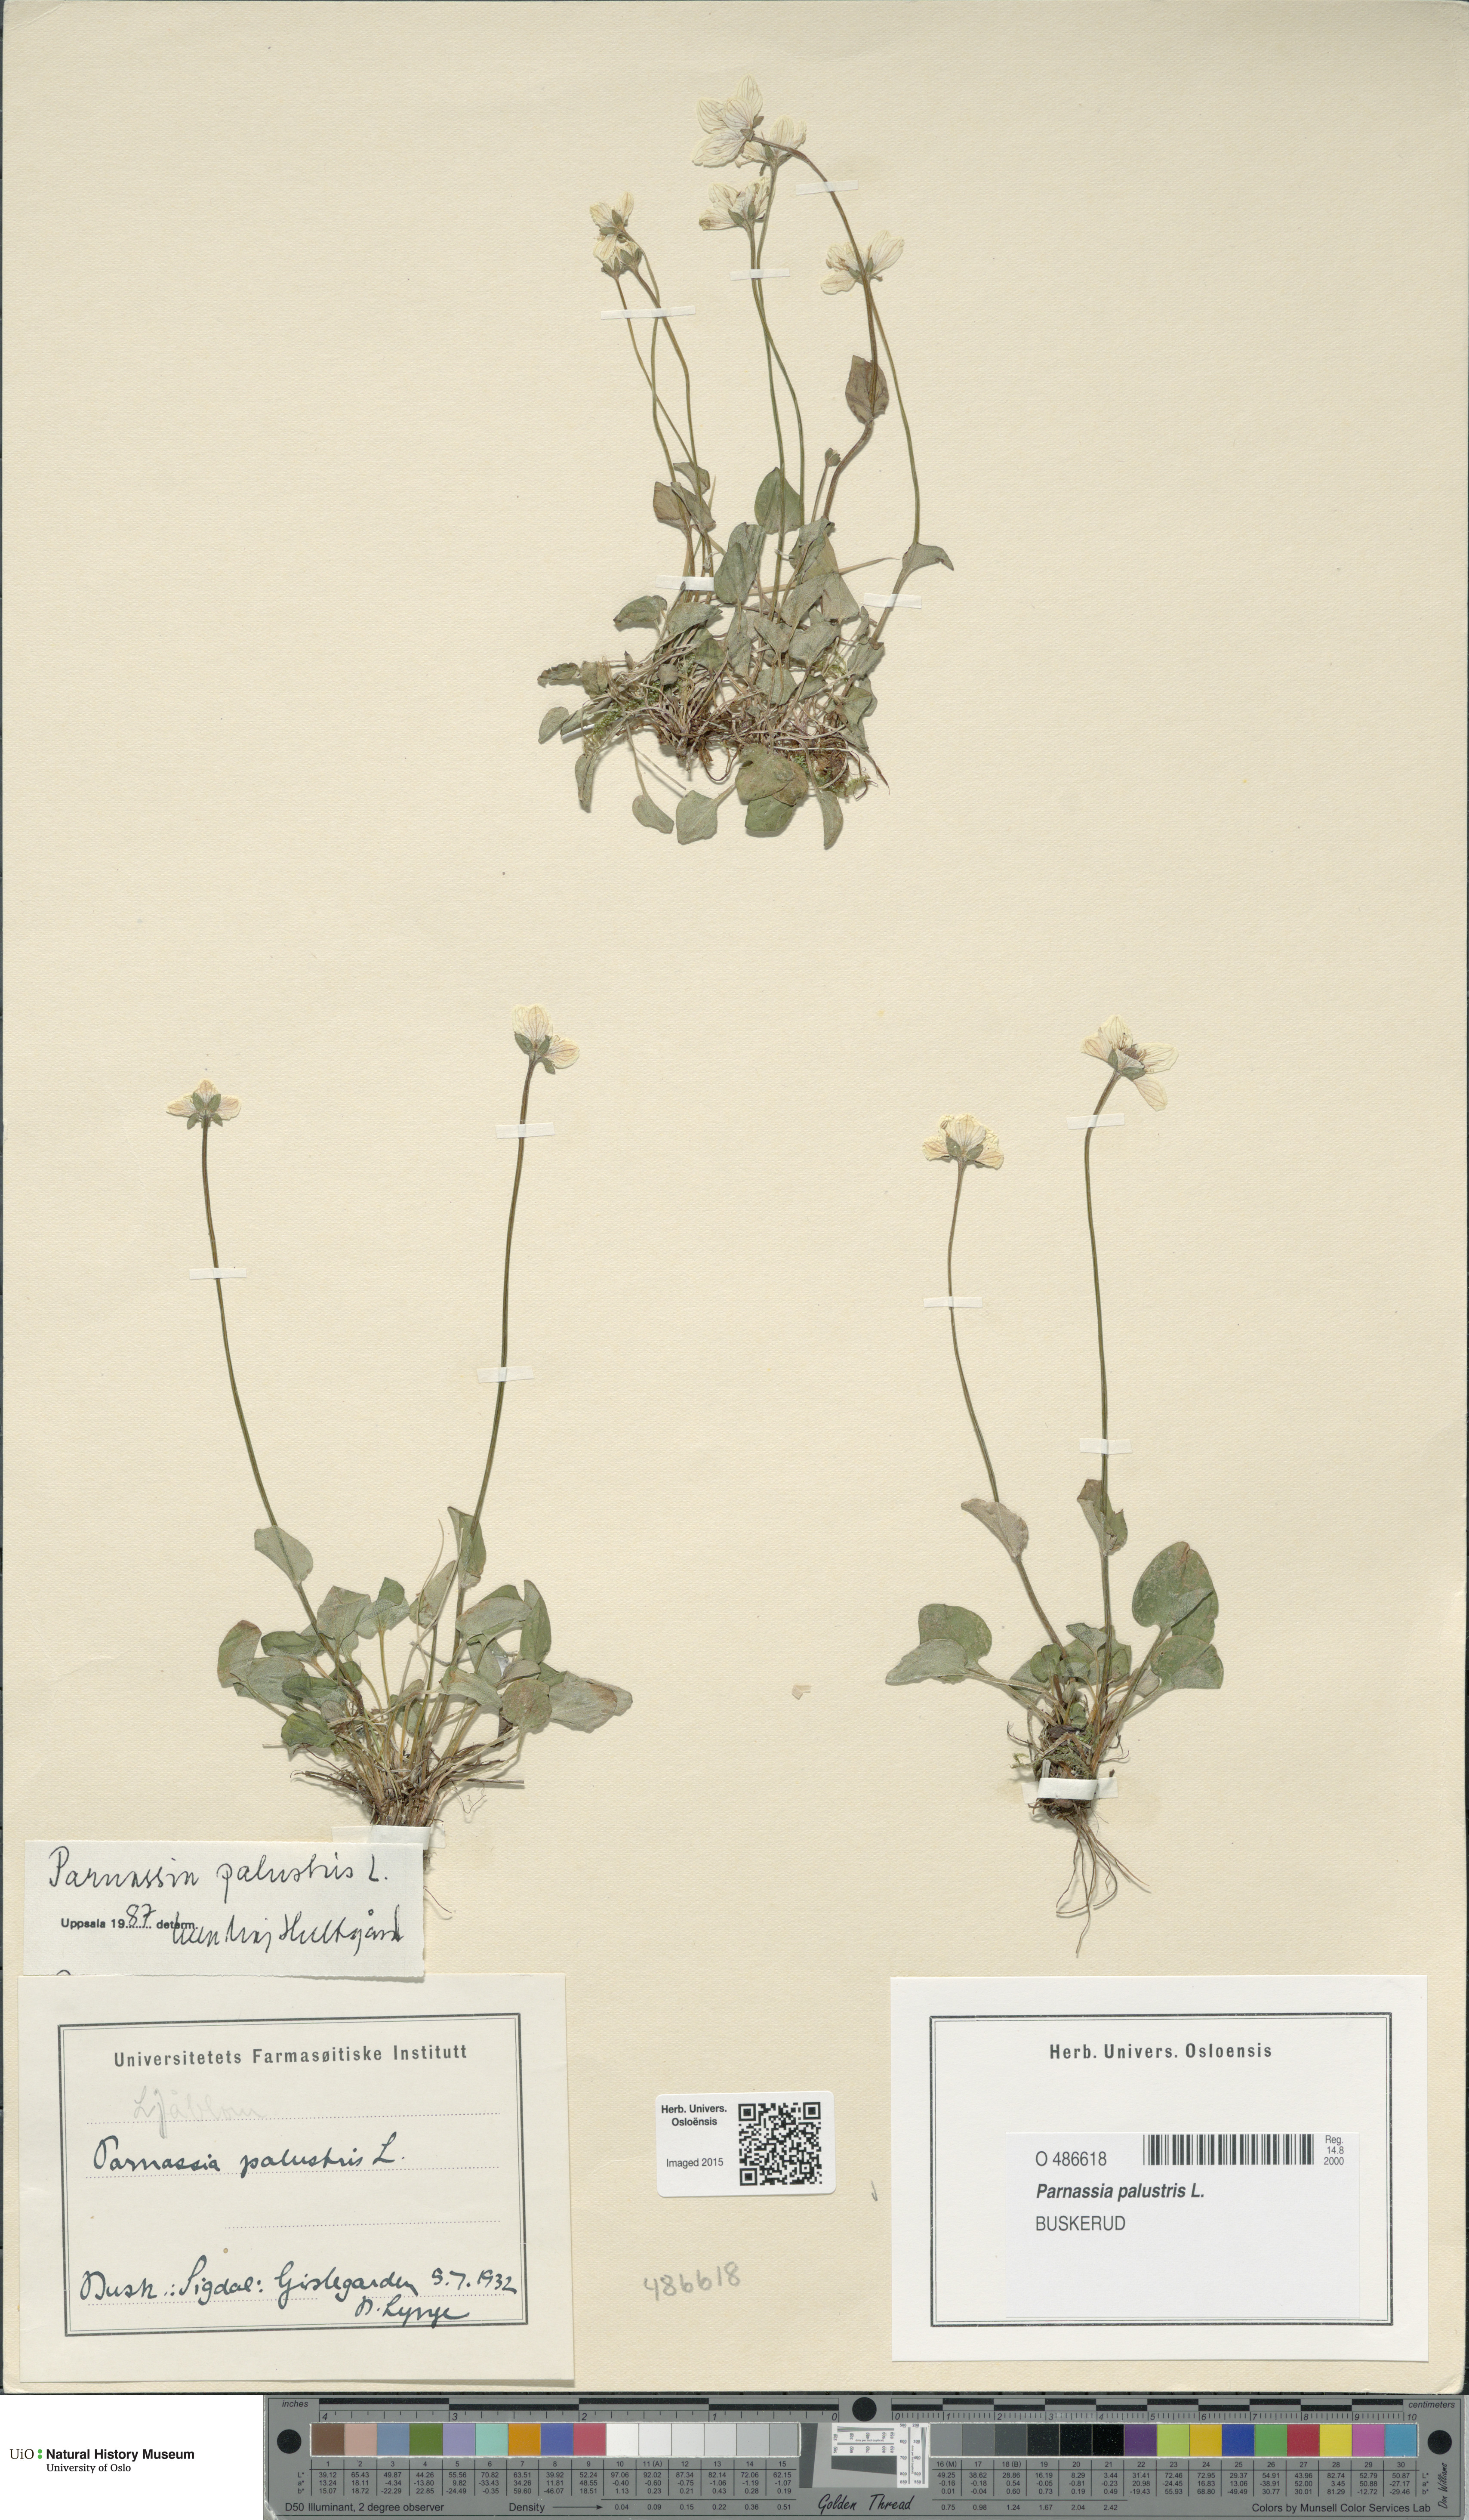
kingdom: Plantae
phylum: Tracheophyta
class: Magnoliopsida
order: Celastrales
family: Parnassiaceae
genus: Parnassia
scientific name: Parnassia palustris
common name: Grass-of-parnassus
